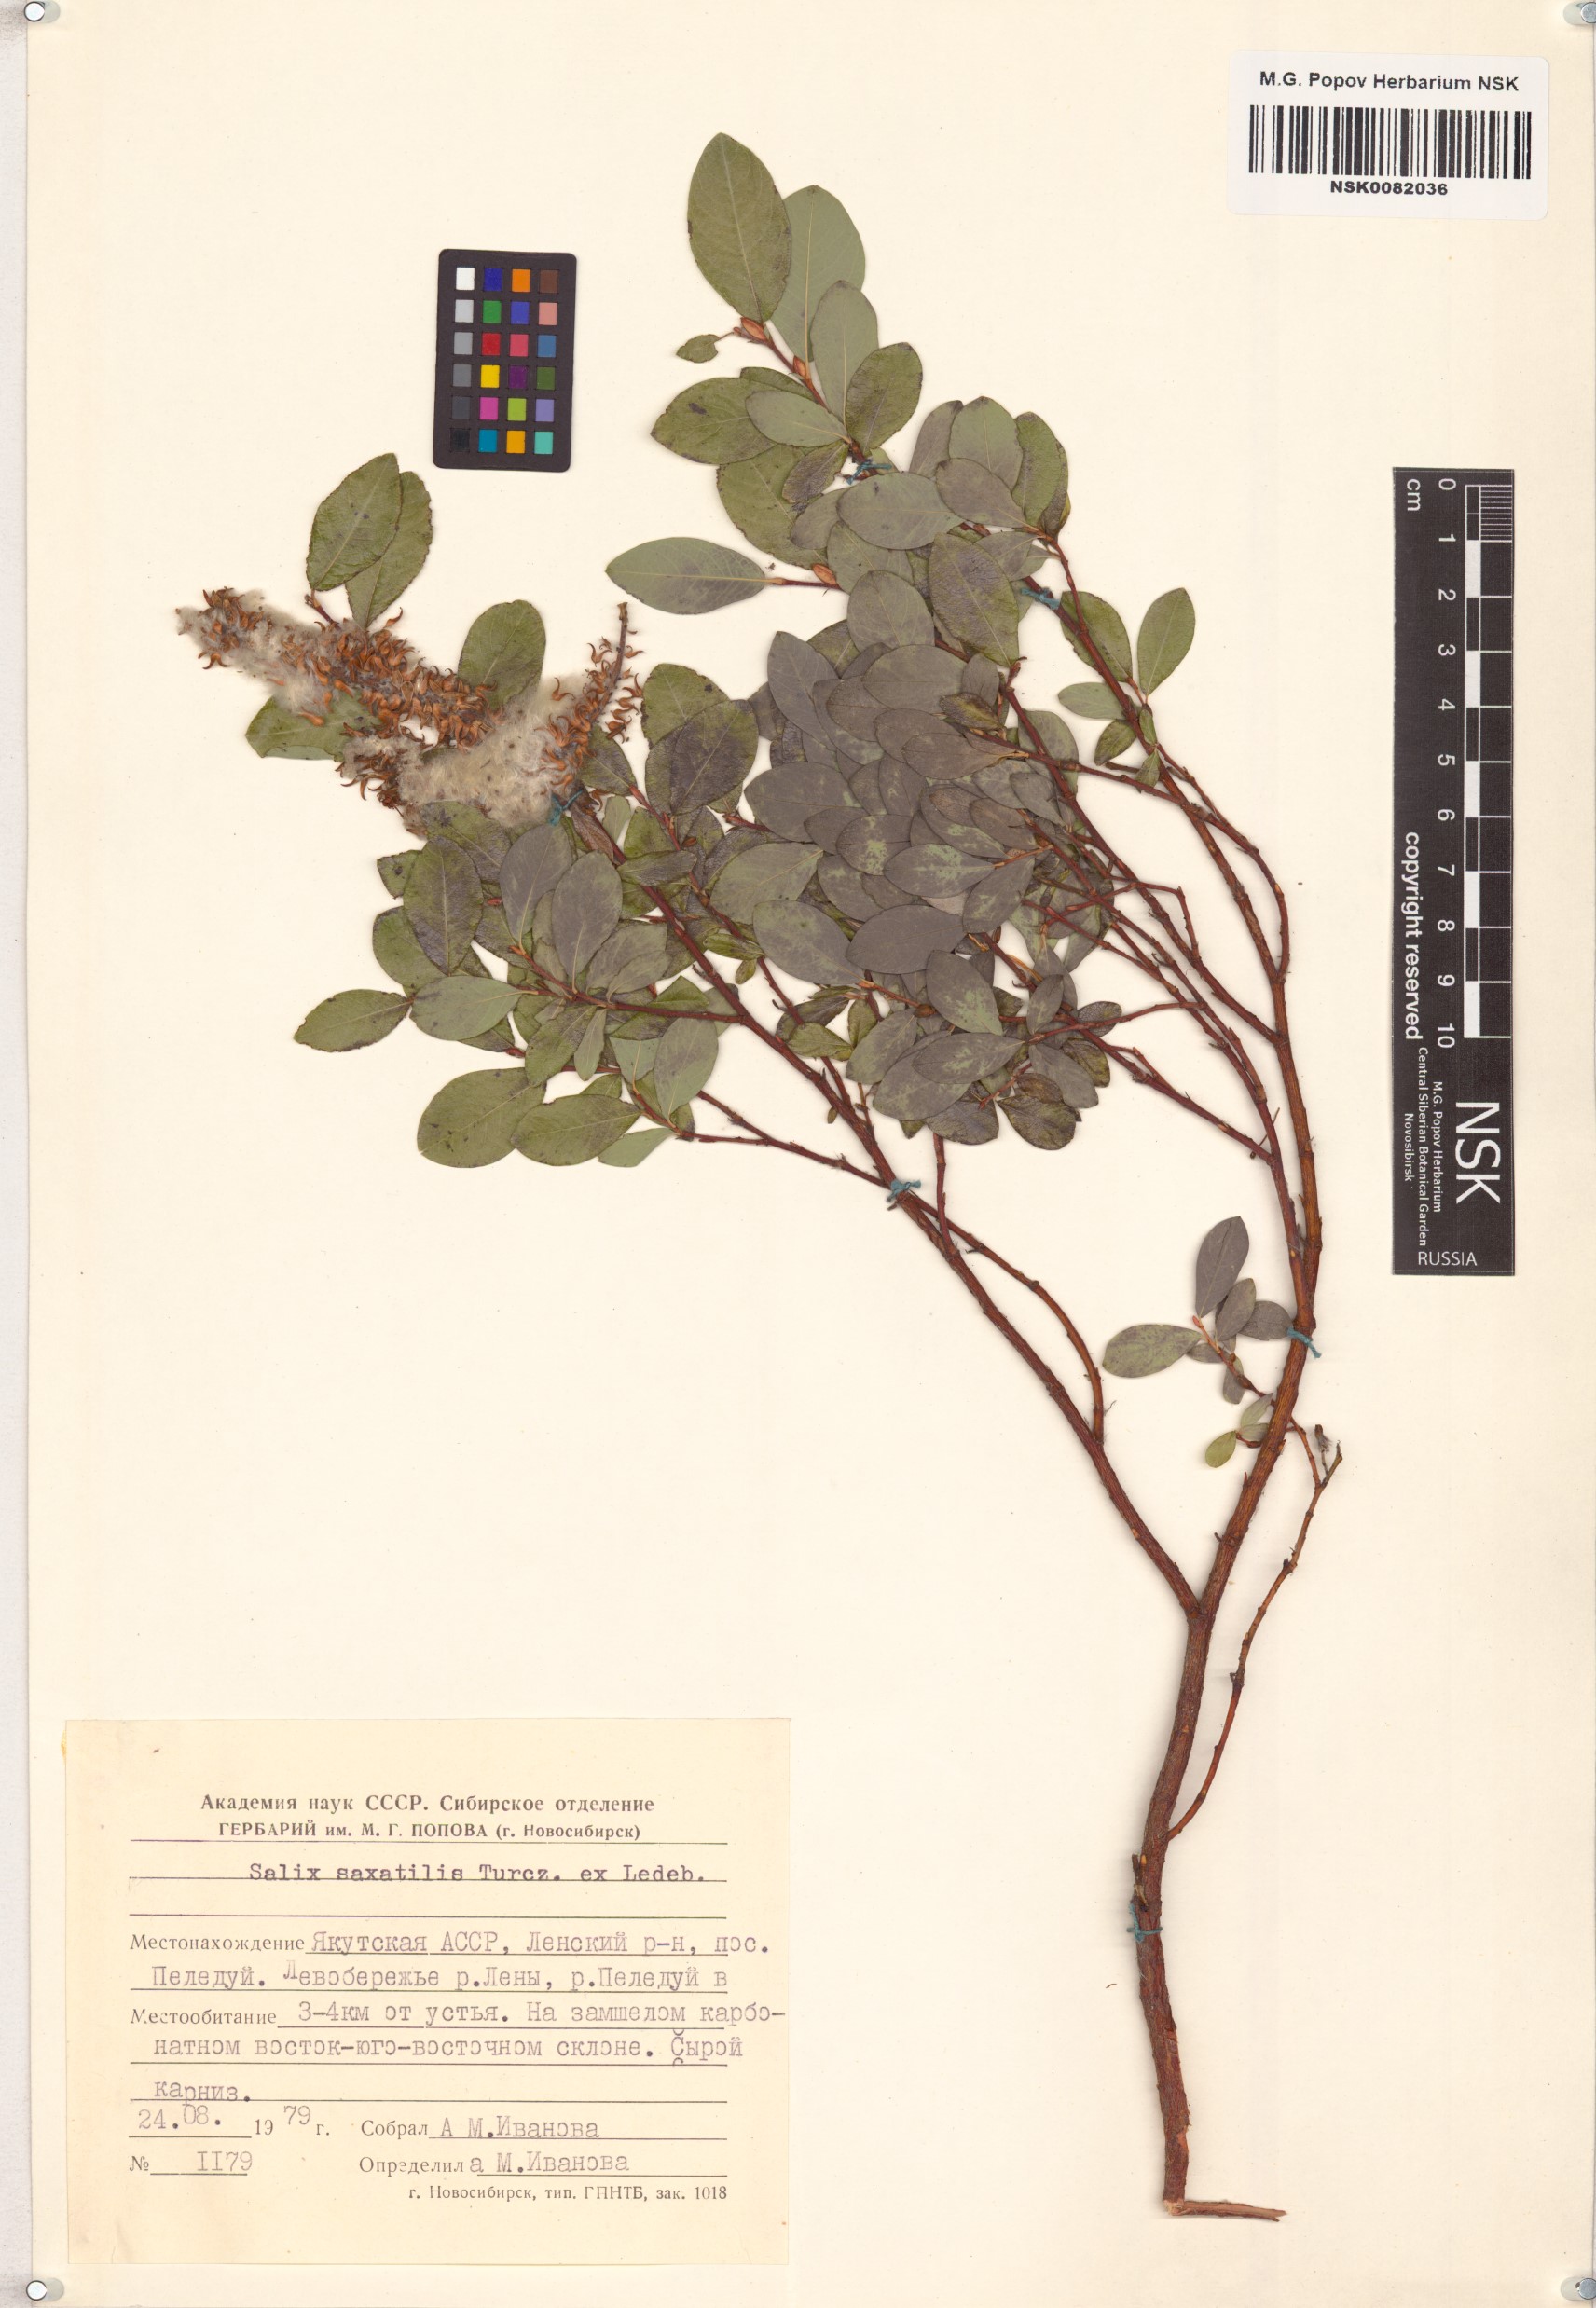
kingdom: Plantae
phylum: Tracheophyta
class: Magnoliopsida
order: Malpighiales
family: Salicaceae
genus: Salix
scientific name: Salix saxatilis
